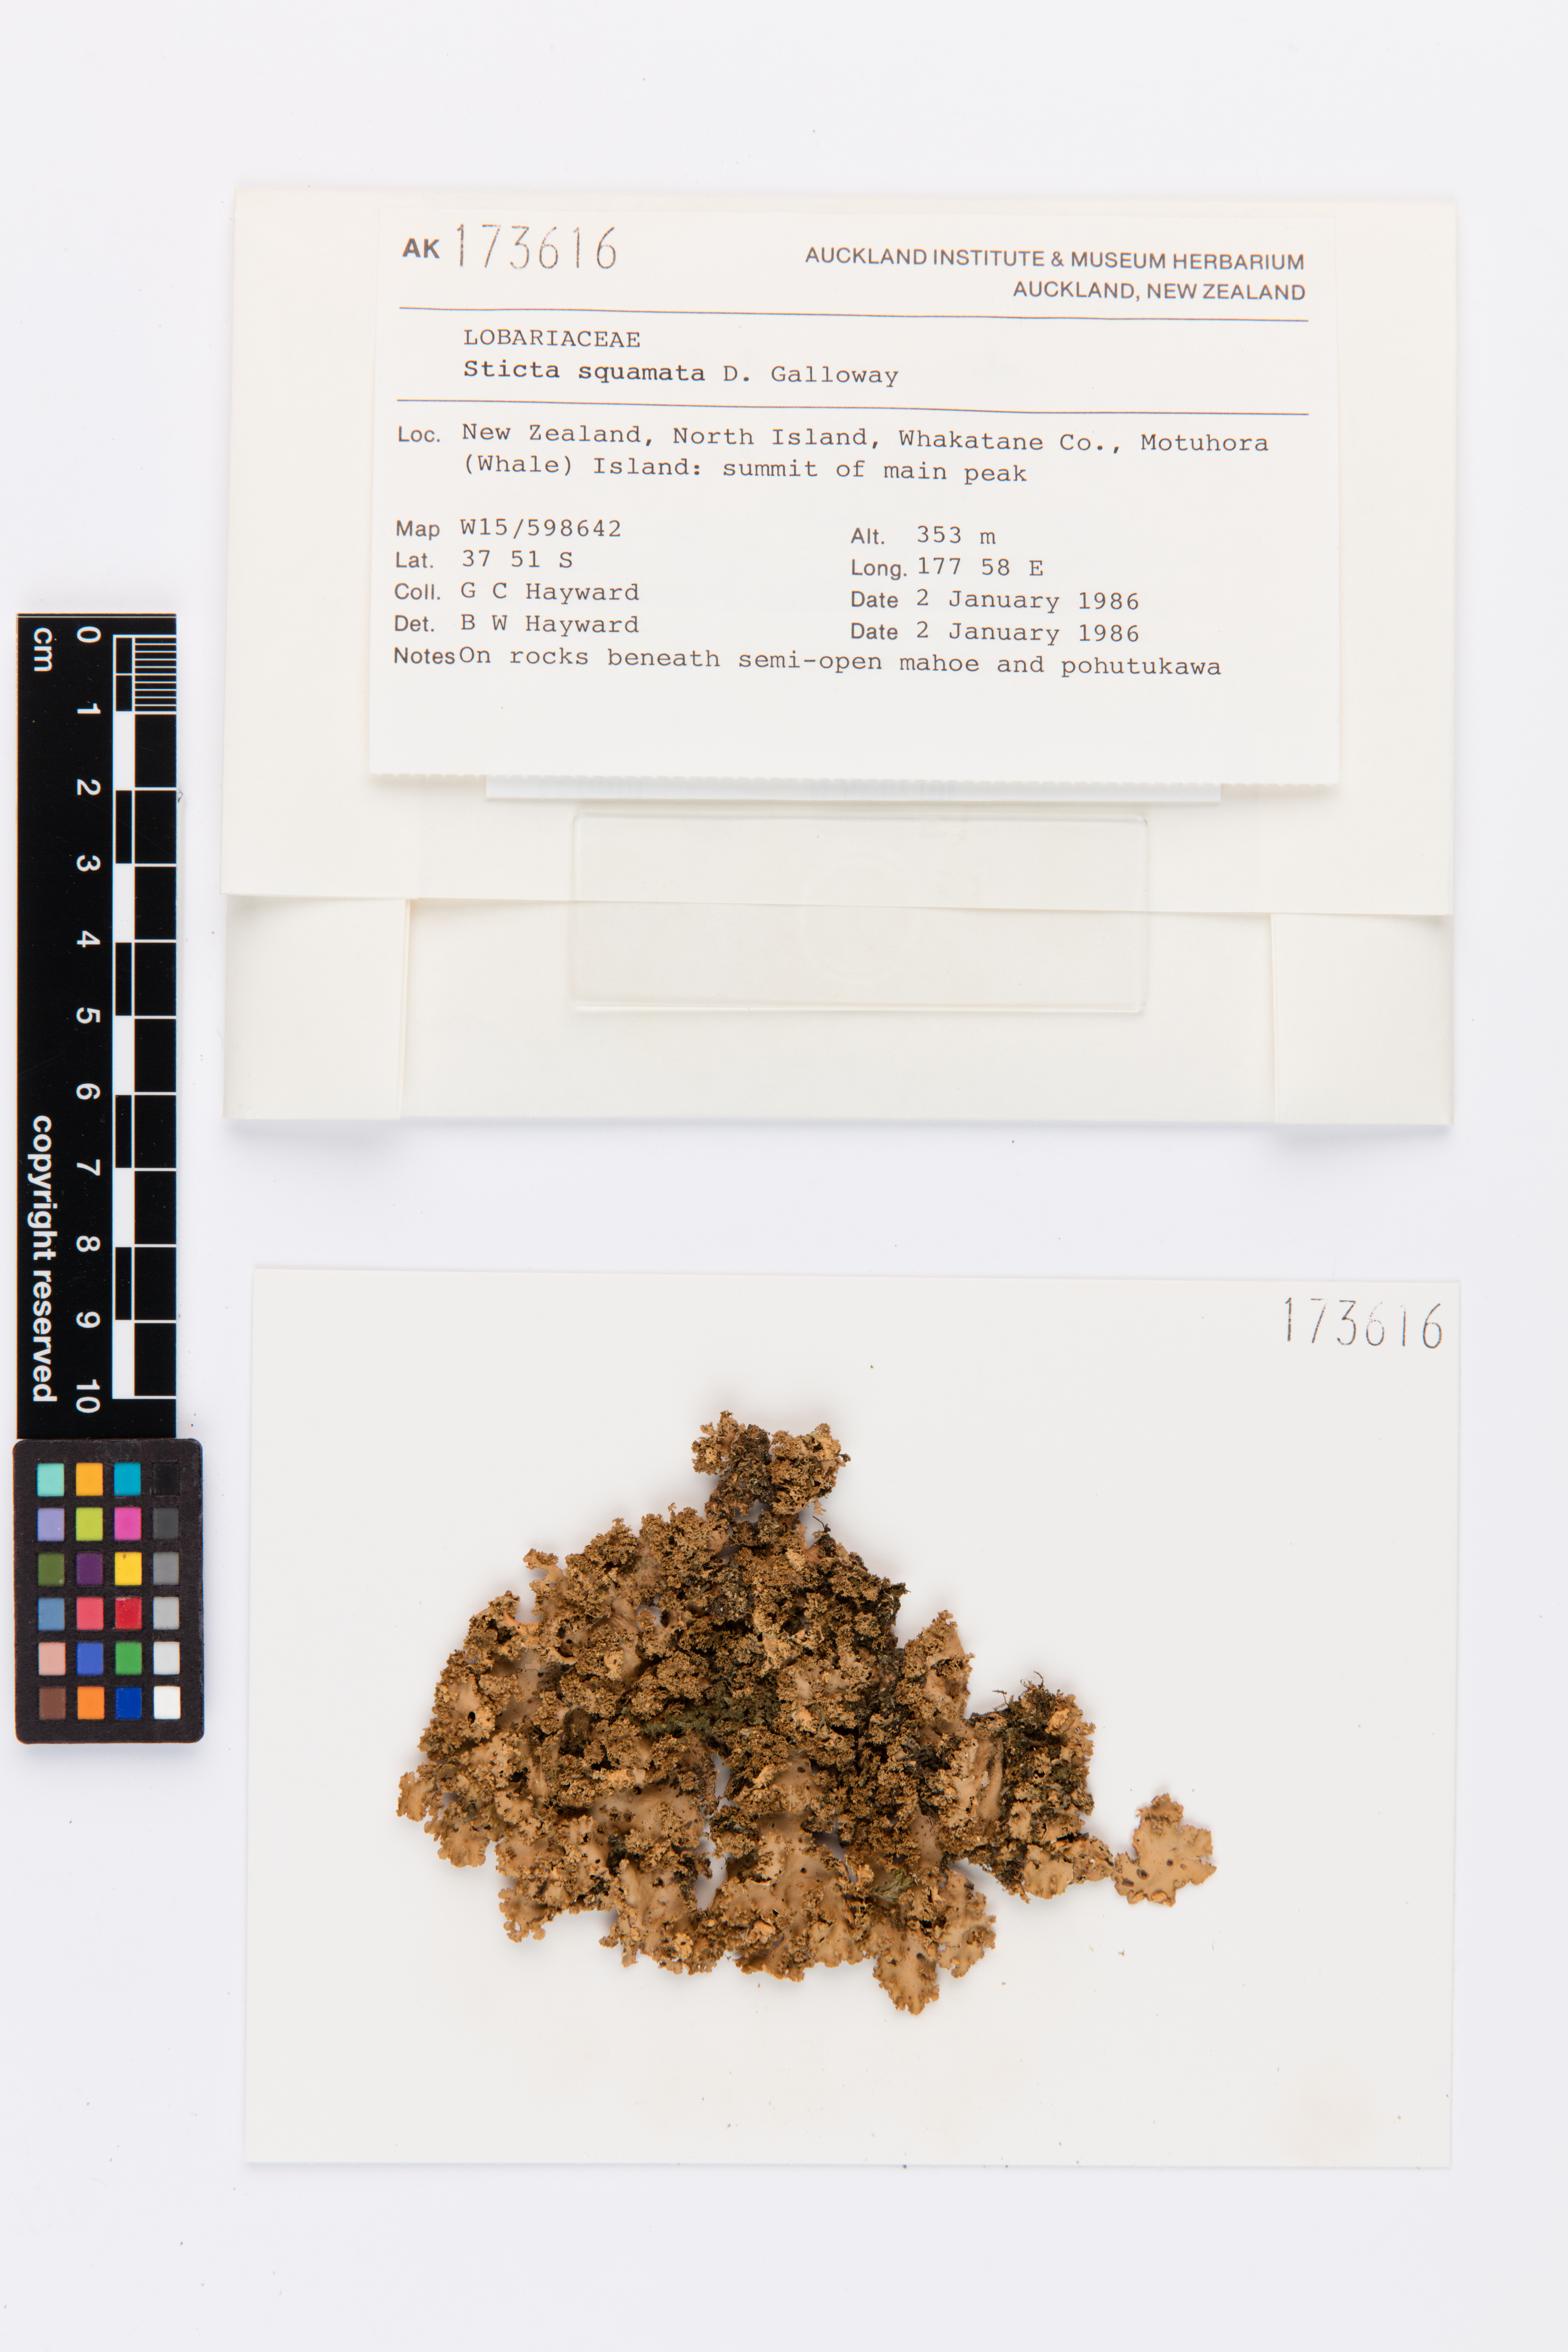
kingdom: Fungi
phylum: Ascomycota
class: Lecanoromycetes
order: Peltigerales
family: Lobariaceae
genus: Sticta
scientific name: Sticta squamata
